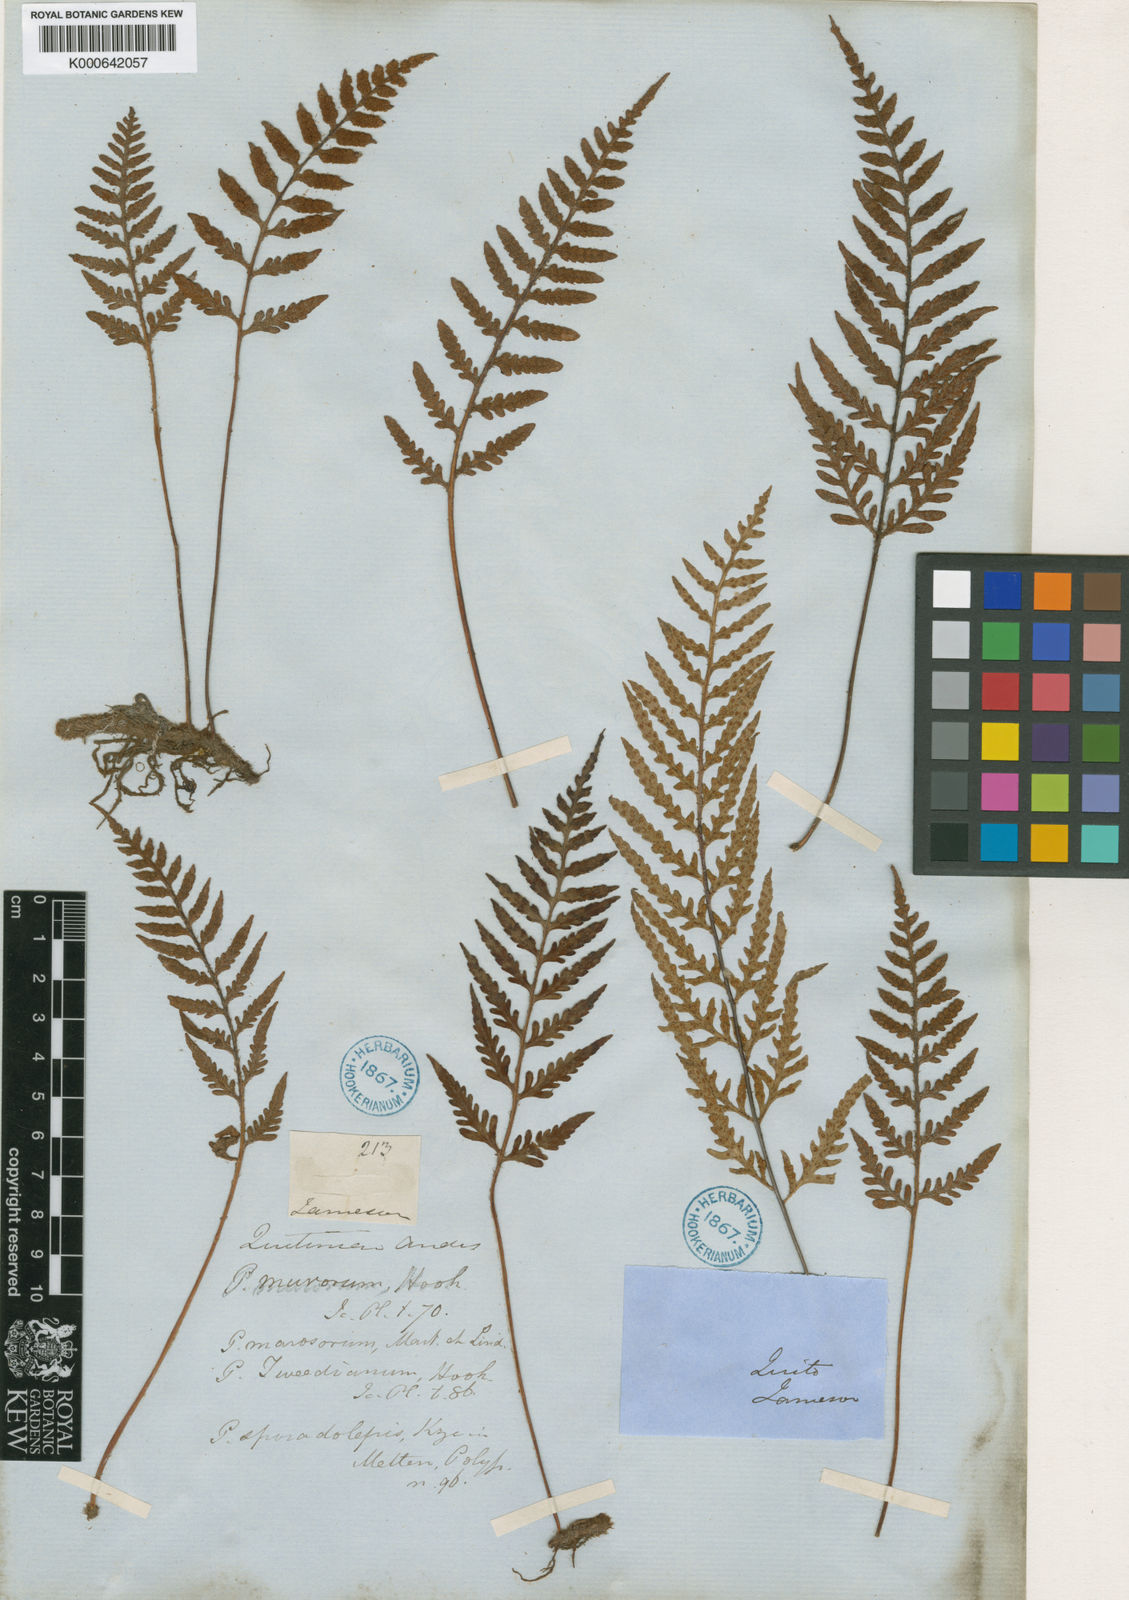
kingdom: Plantae
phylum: Tracheophyta
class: Polypodiopsida
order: Polypodiales
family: Polypodiaceae
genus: Pleopeltis
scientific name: Pleopeltis murora
